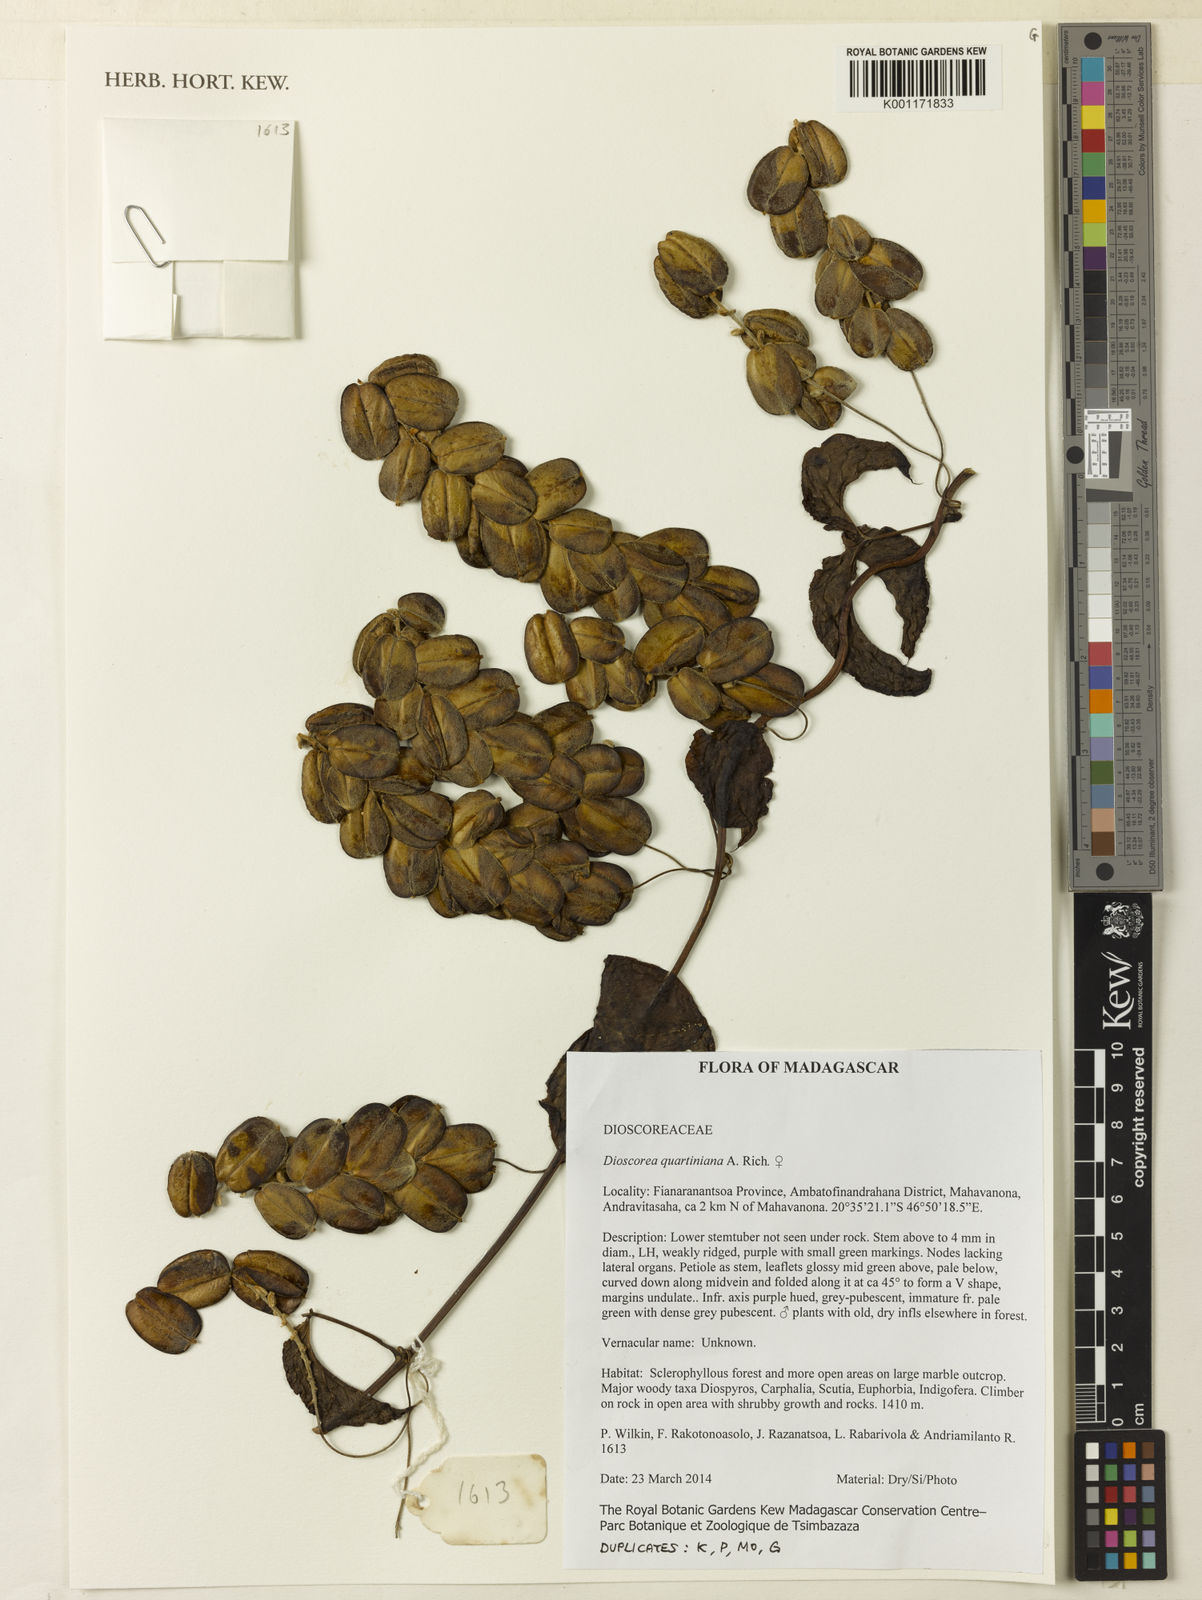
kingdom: Plantae
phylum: Tracheophyta
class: Liliopsida
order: Dioscoreales
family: Dioscoreaceae
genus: Dioscorea
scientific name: Dioscorea quartiniana
